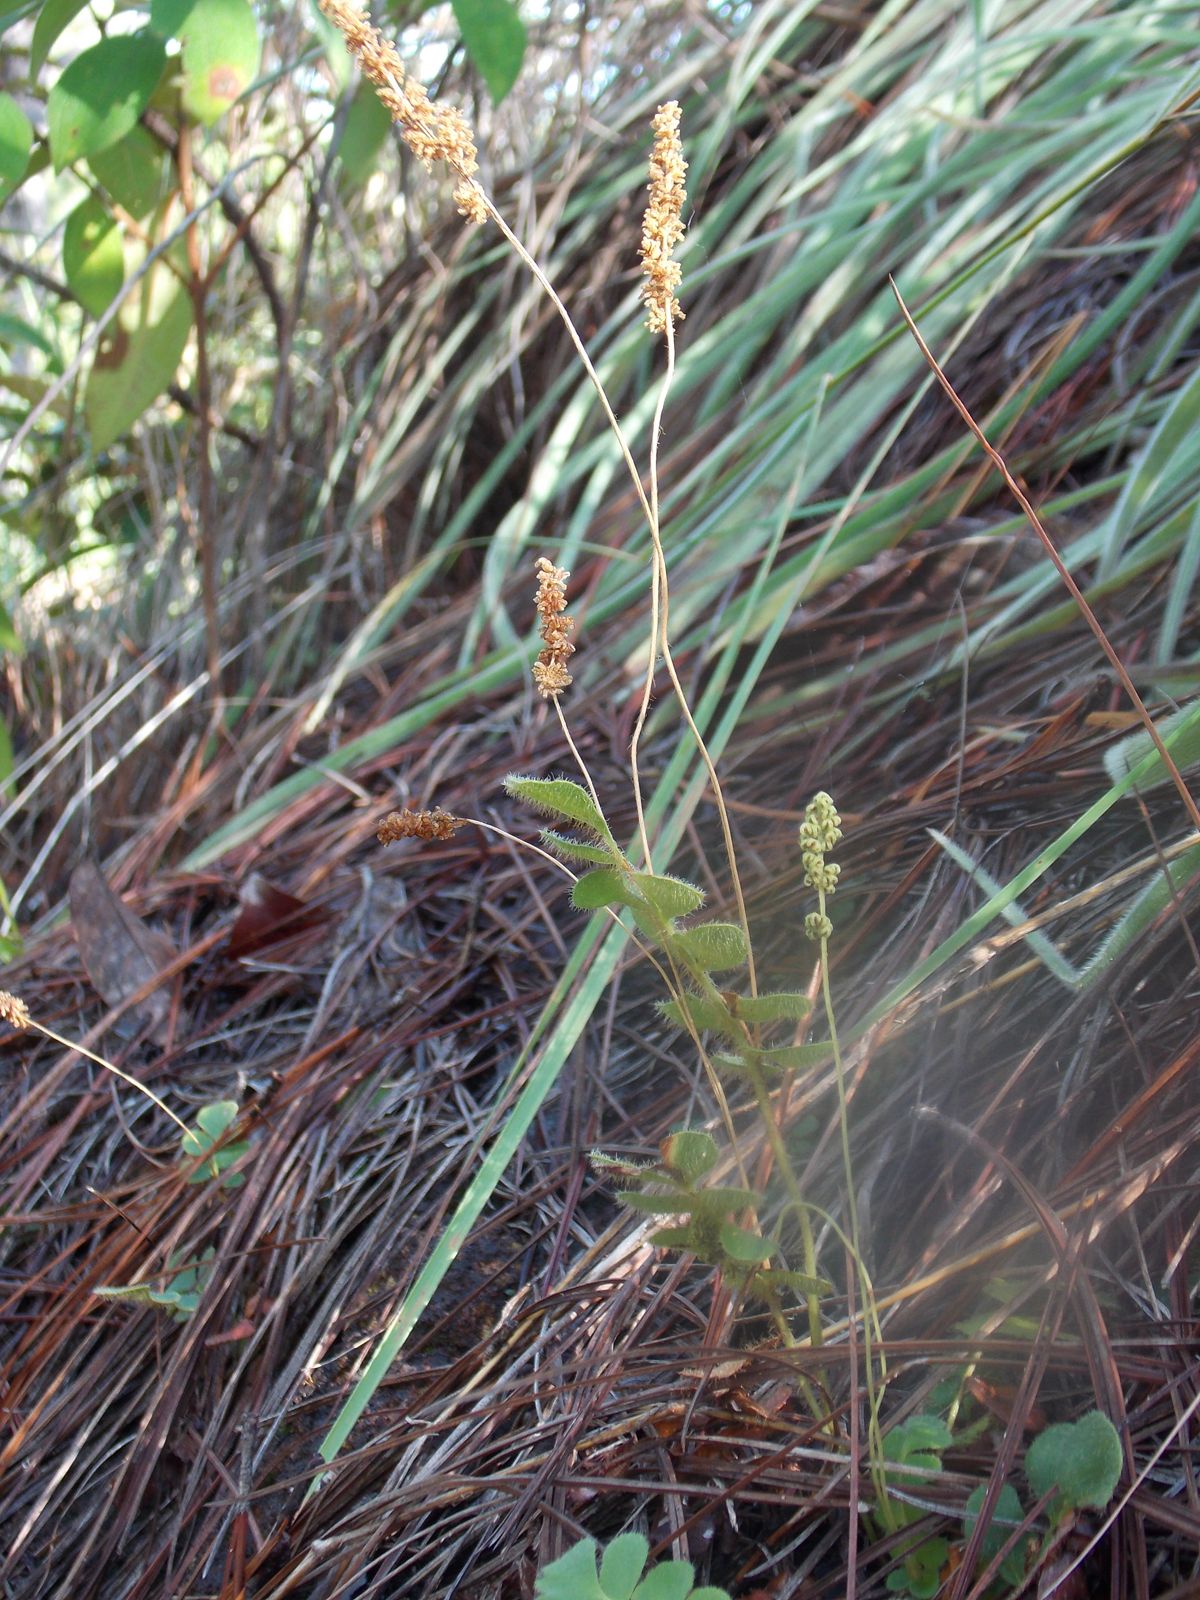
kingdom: Plantae
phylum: Tracheophyta
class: Polypodiopsida
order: Schizaeales
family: Anemiaceae
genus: Anemia
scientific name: Anemia hispida
